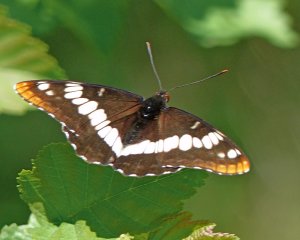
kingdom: Animalia
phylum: Arthropoda
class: Insecta
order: Lepidoptera
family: Nymphalidae
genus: Limenitis
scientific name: Limenitis lorquini
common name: Lorquin's Admiral
